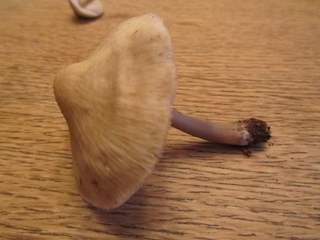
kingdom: Fungi
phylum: Basidiomycota
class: Agaricomycetes
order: Agaricales
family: Mycenaceae
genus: Mycena
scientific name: Mycena galericulata
